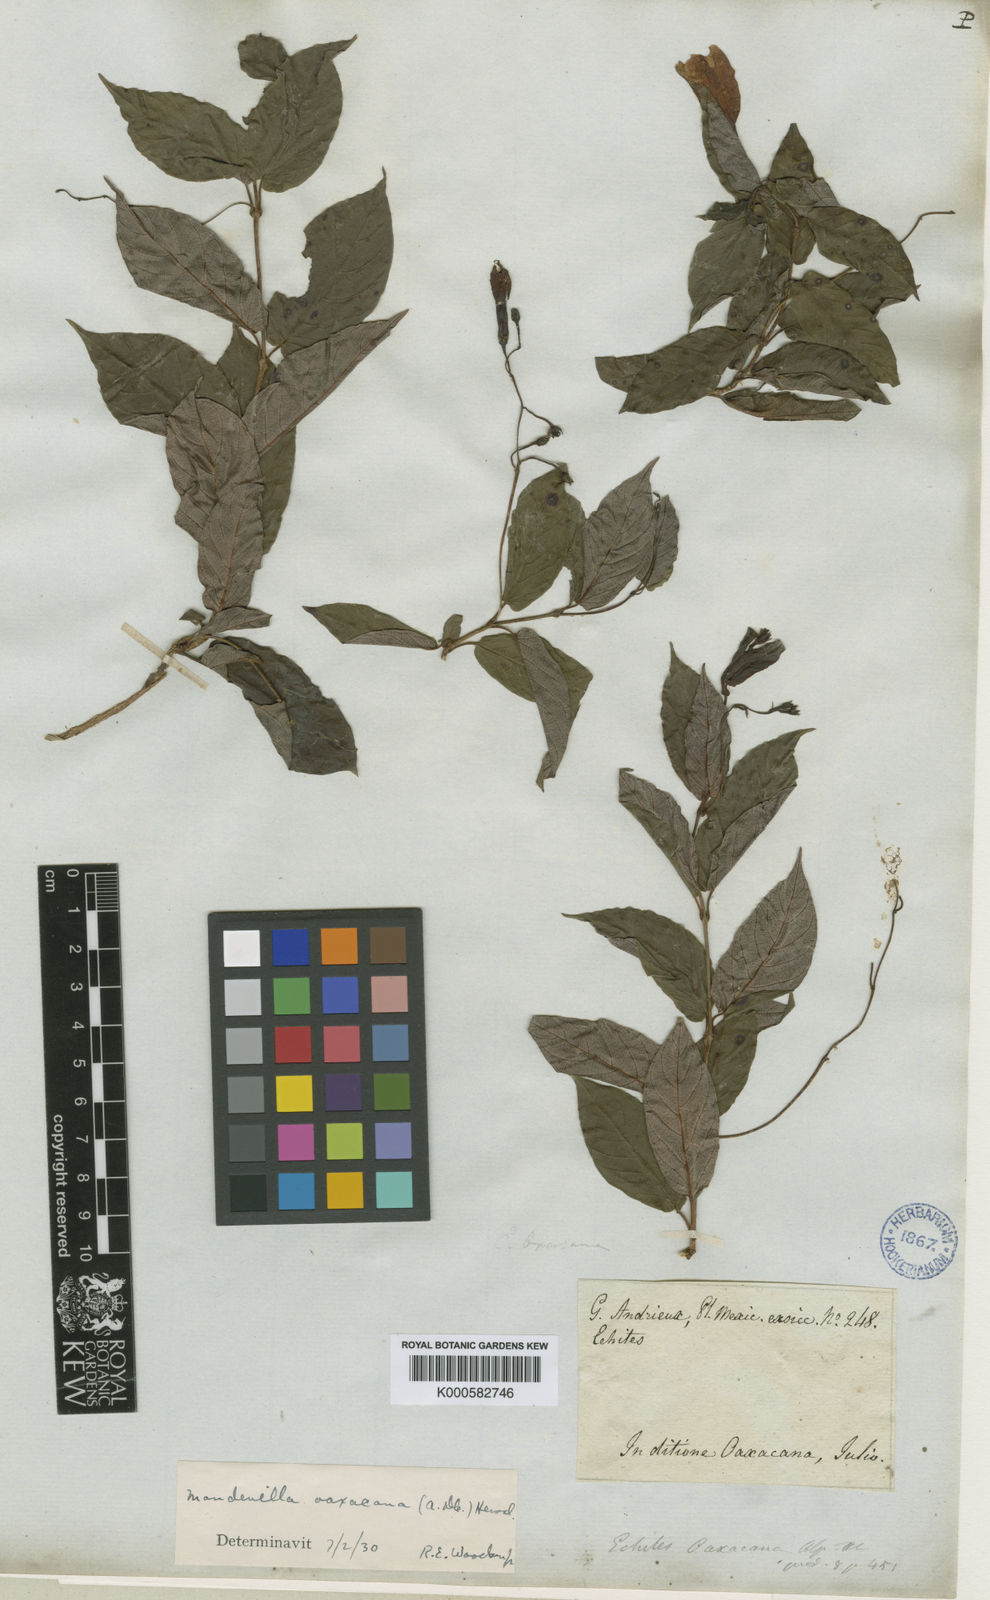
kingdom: Plantae
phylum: Tracheophyta
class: Magnoliopsida
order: Gentianales
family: Apocynaceae
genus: Mandevilla
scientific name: Mandevilla oaxacana
